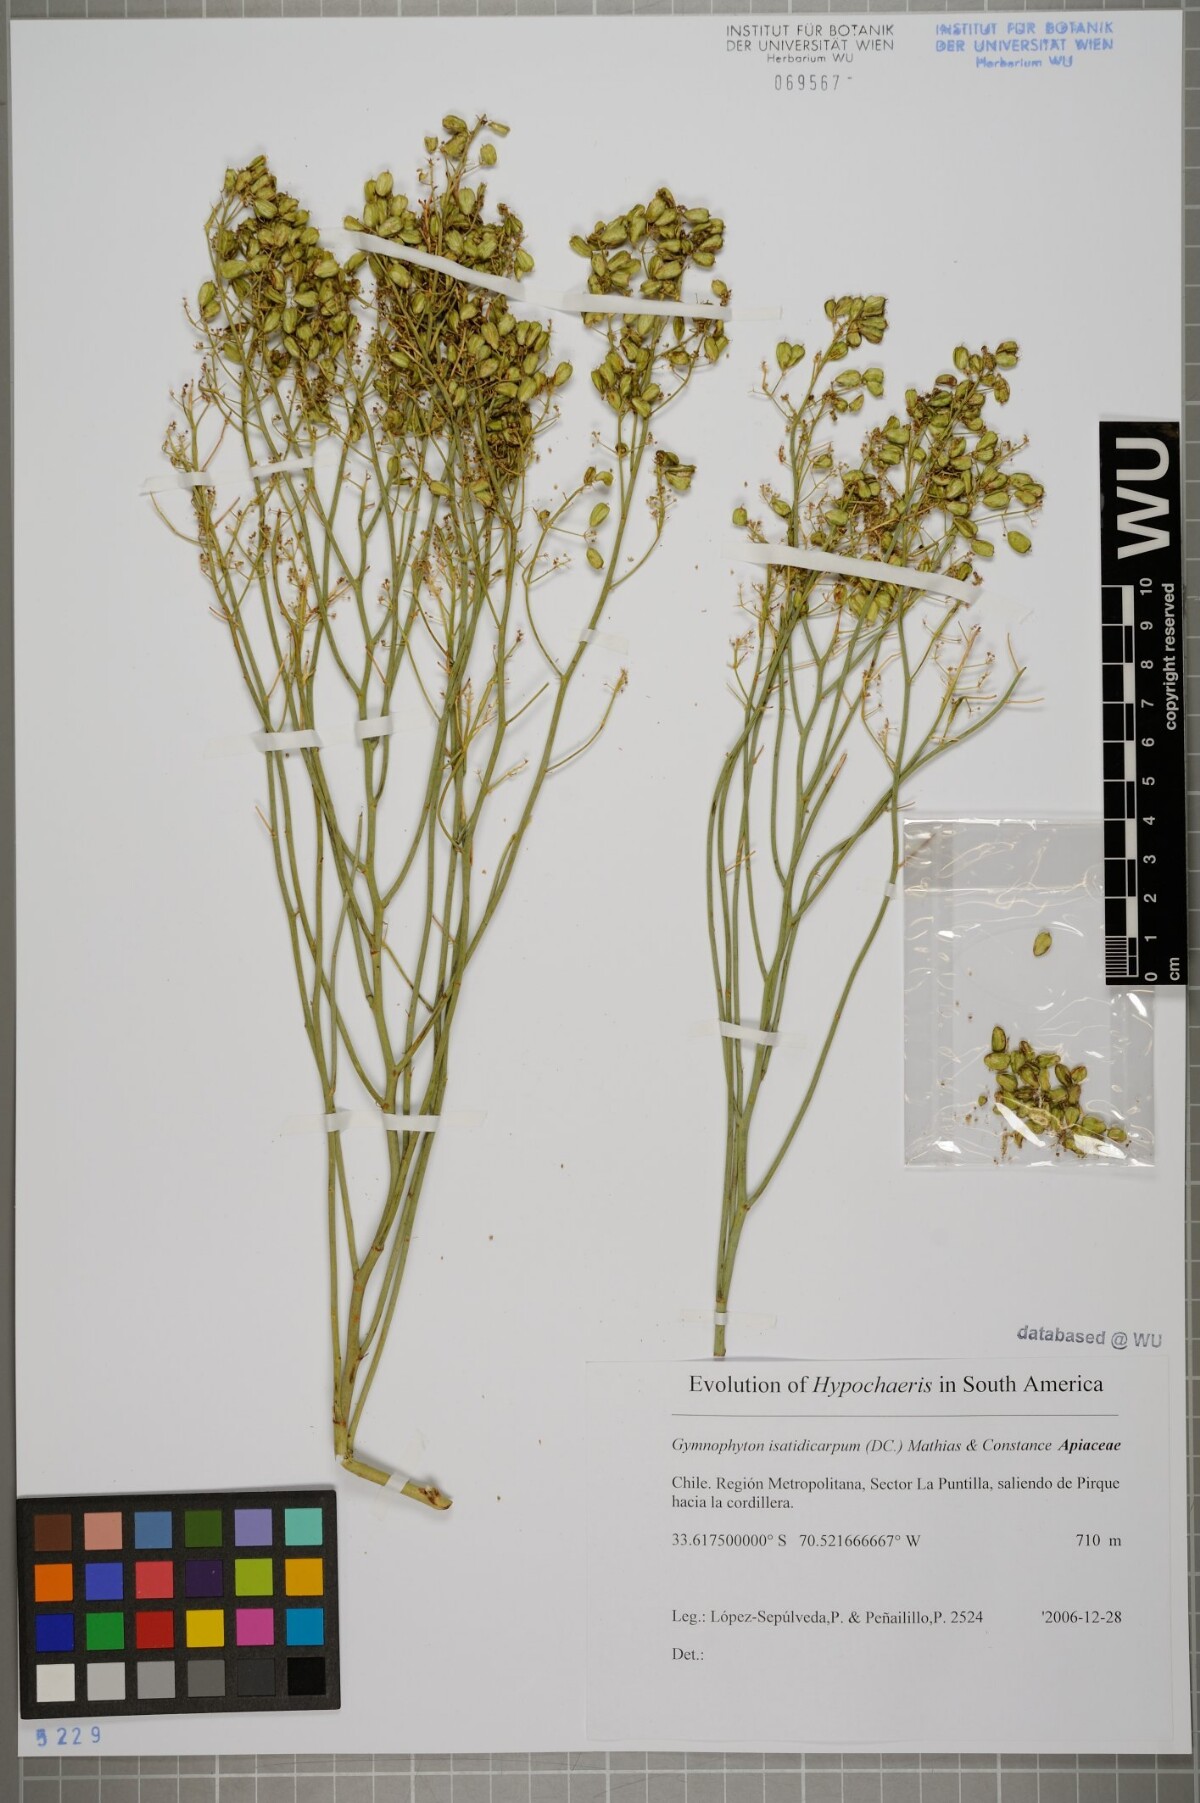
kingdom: Plantae
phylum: Tracheophyta
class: Magnoliopsida
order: Apiales
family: Apiaceae
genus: Gymnophyton
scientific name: Gymnophyton isatidicarpum
